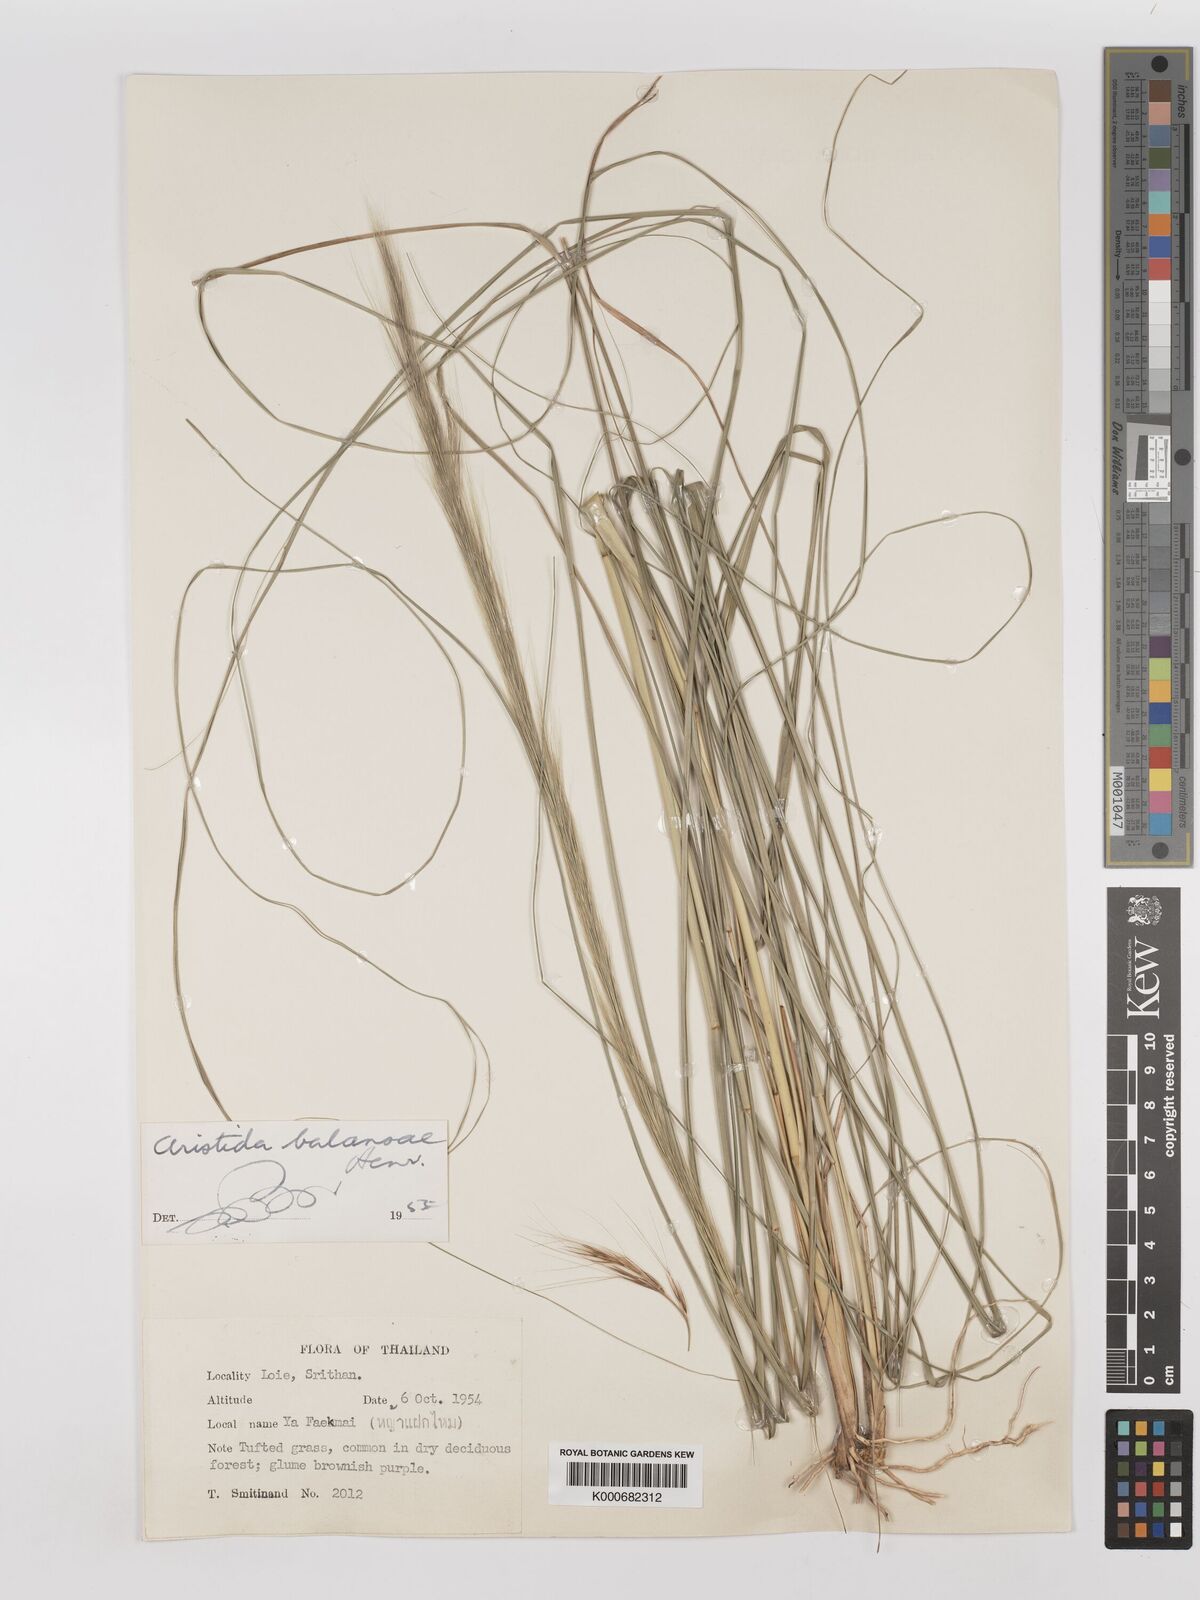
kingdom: Plantae
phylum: Tracheophyta
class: Liliopsida
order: Poales
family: Poaceae
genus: Aristida
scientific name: Aristida balansae
